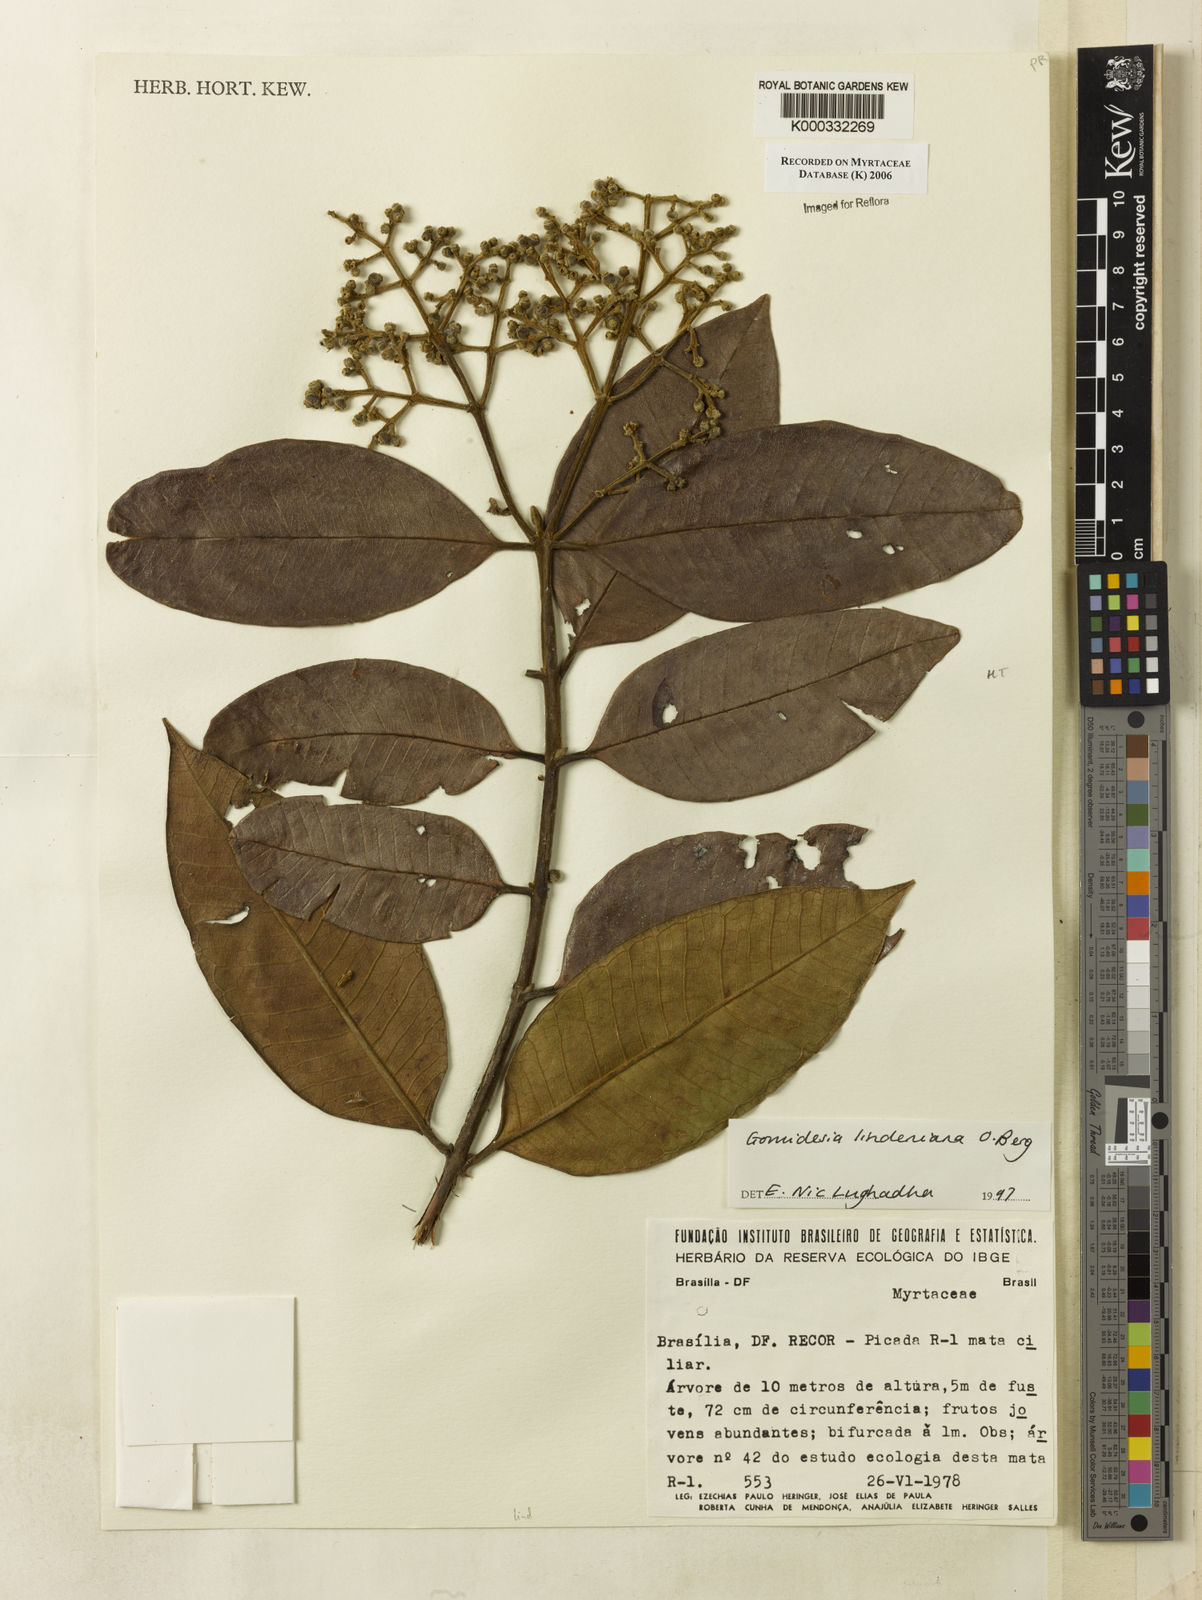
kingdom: Plantae
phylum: Tracheophyta
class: Magnoliopsida
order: Myrtales
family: Myrtaceae
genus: Myrcia
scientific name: Myrcia fenzliana
